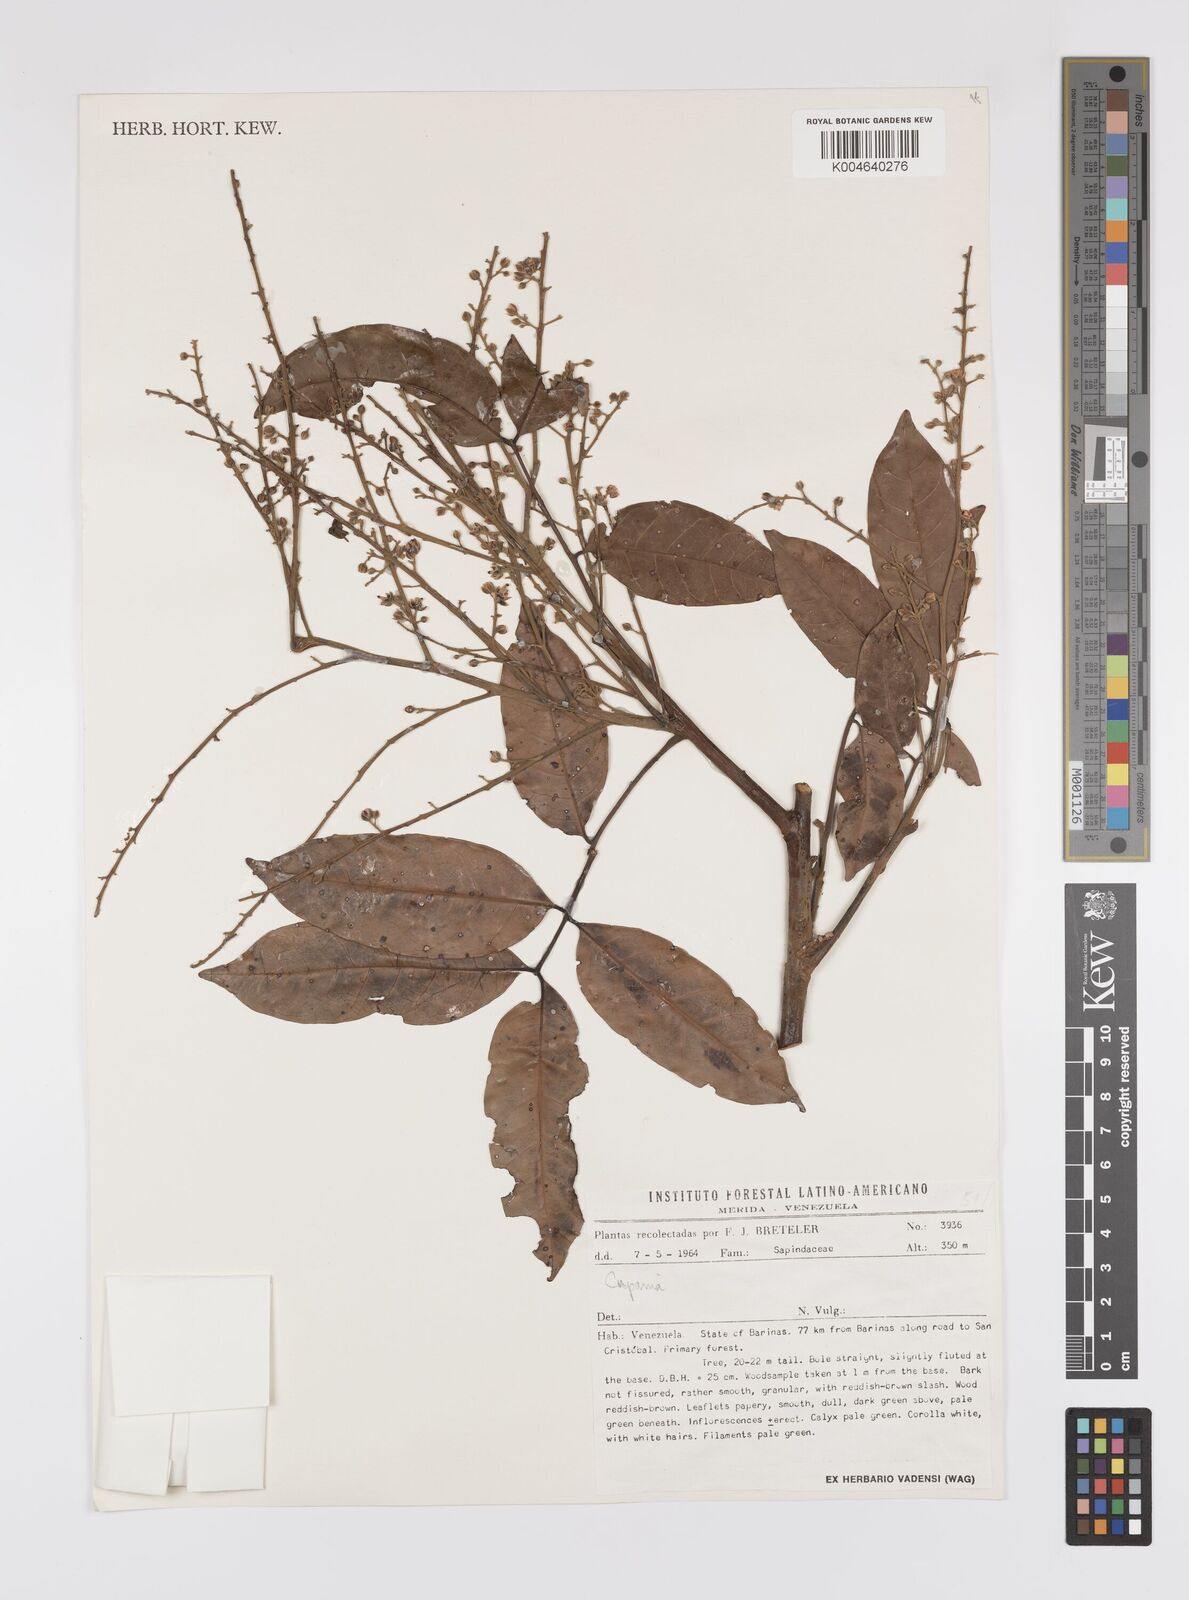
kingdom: Plantae
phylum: Tracheophyta
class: Magnoliopsida
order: Sapindales
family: Sapindaceae
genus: Cupania
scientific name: Cupania
